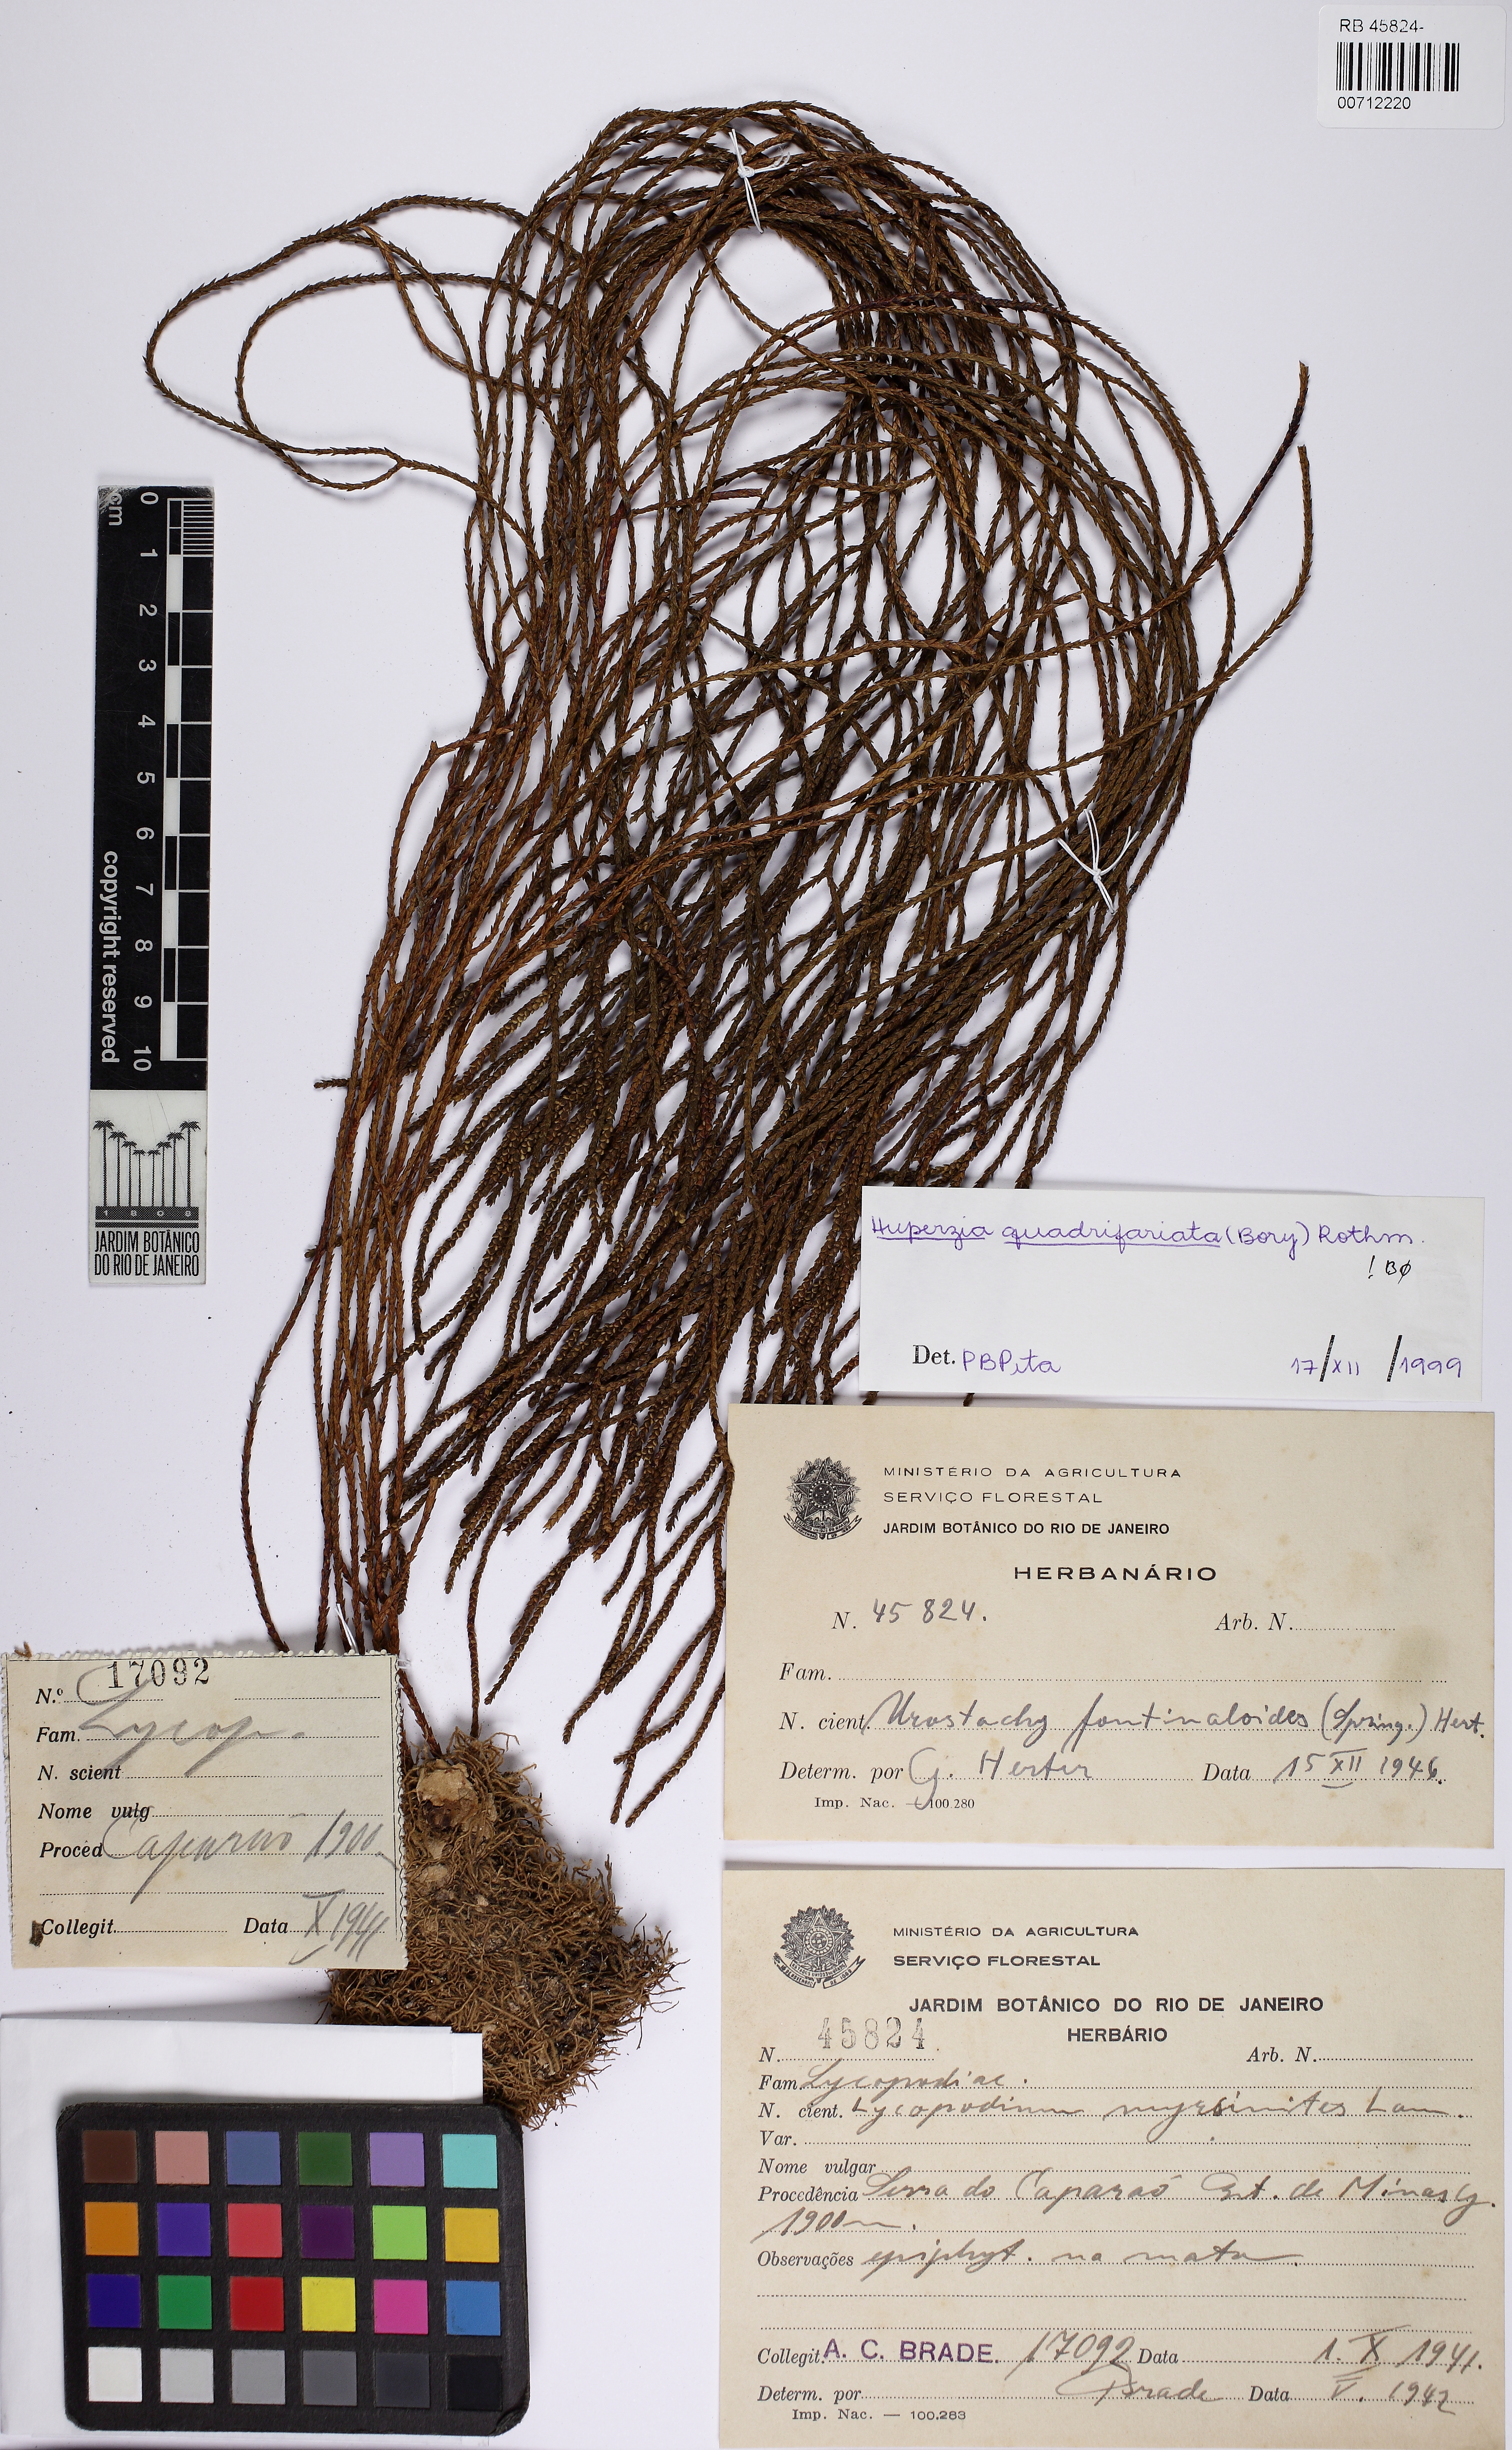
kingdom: Plantae
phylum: Tracheophyta
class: Lycopodiopsida
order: Lycopodiales
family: Lycopodiaceae
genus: Phlegmariurus
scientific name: Phlegmariurus quadrifariatus
